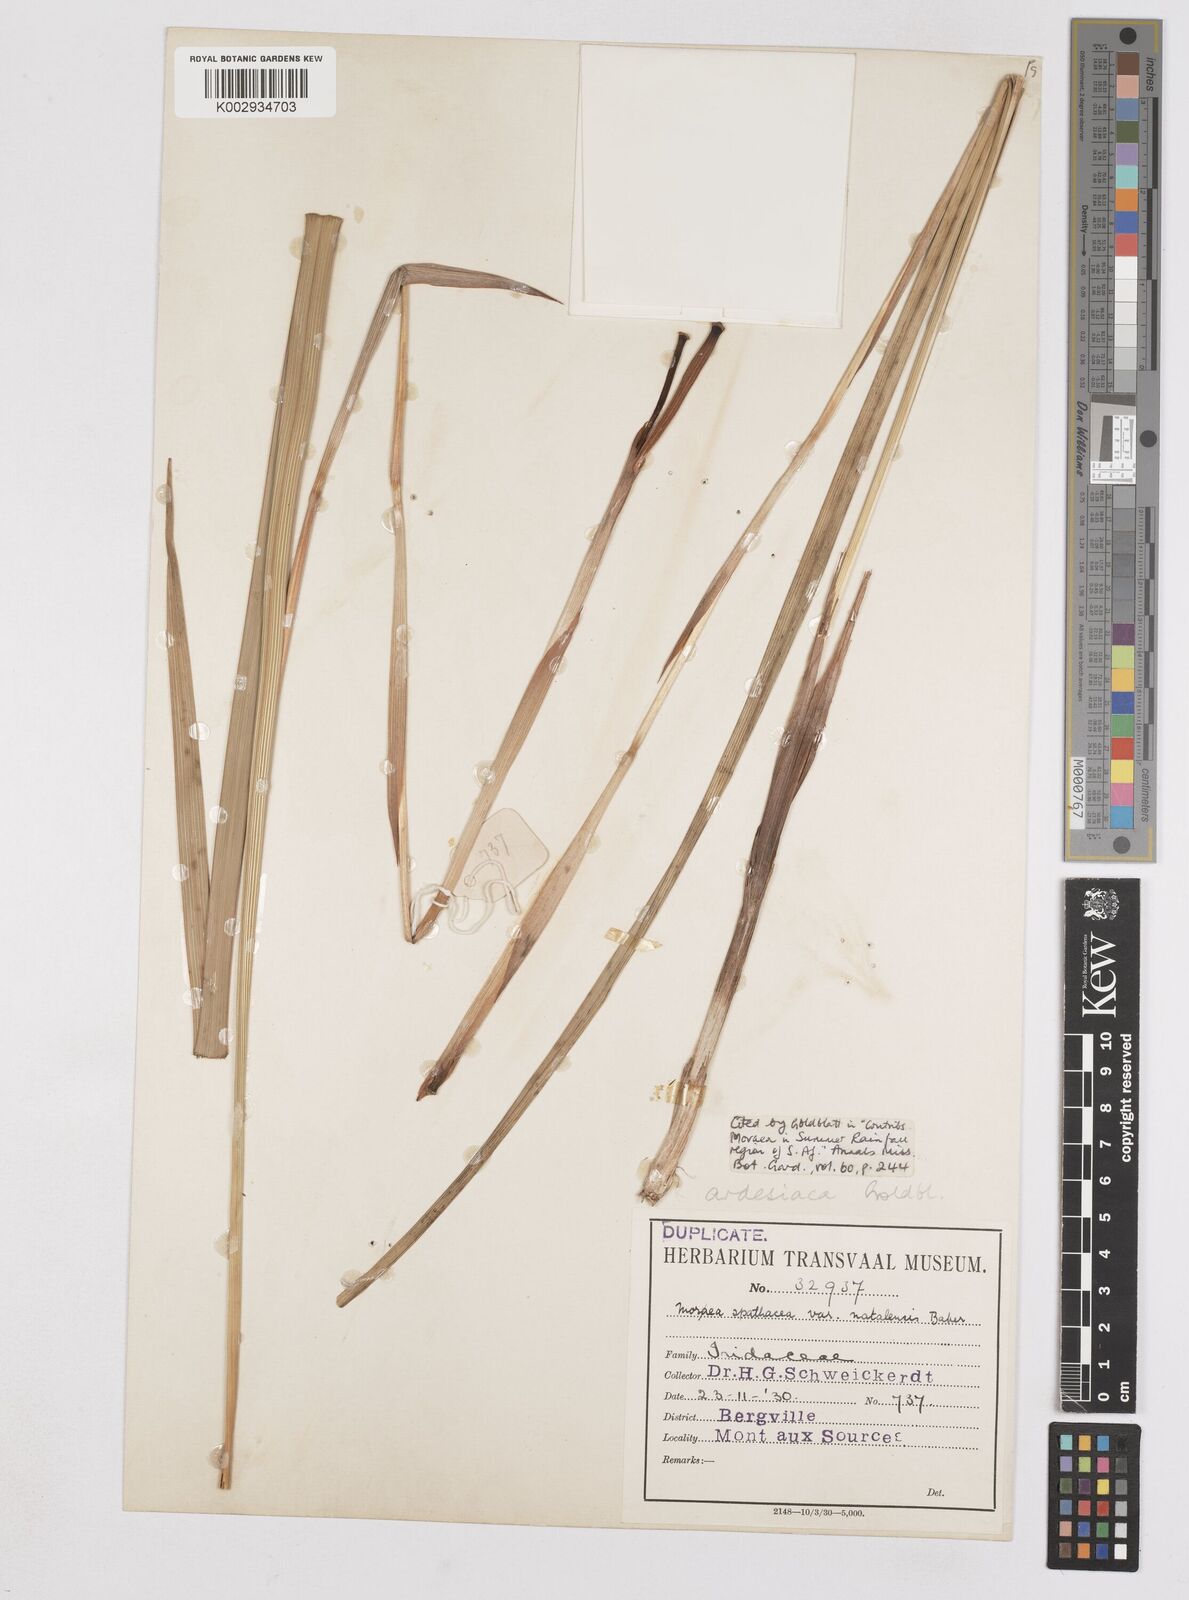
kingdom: Plantae
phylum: Tracheophyta
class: Liliopsida
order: Asparagales
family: Iridaceae
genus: Moraea
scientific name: Moraea ardesiaca
